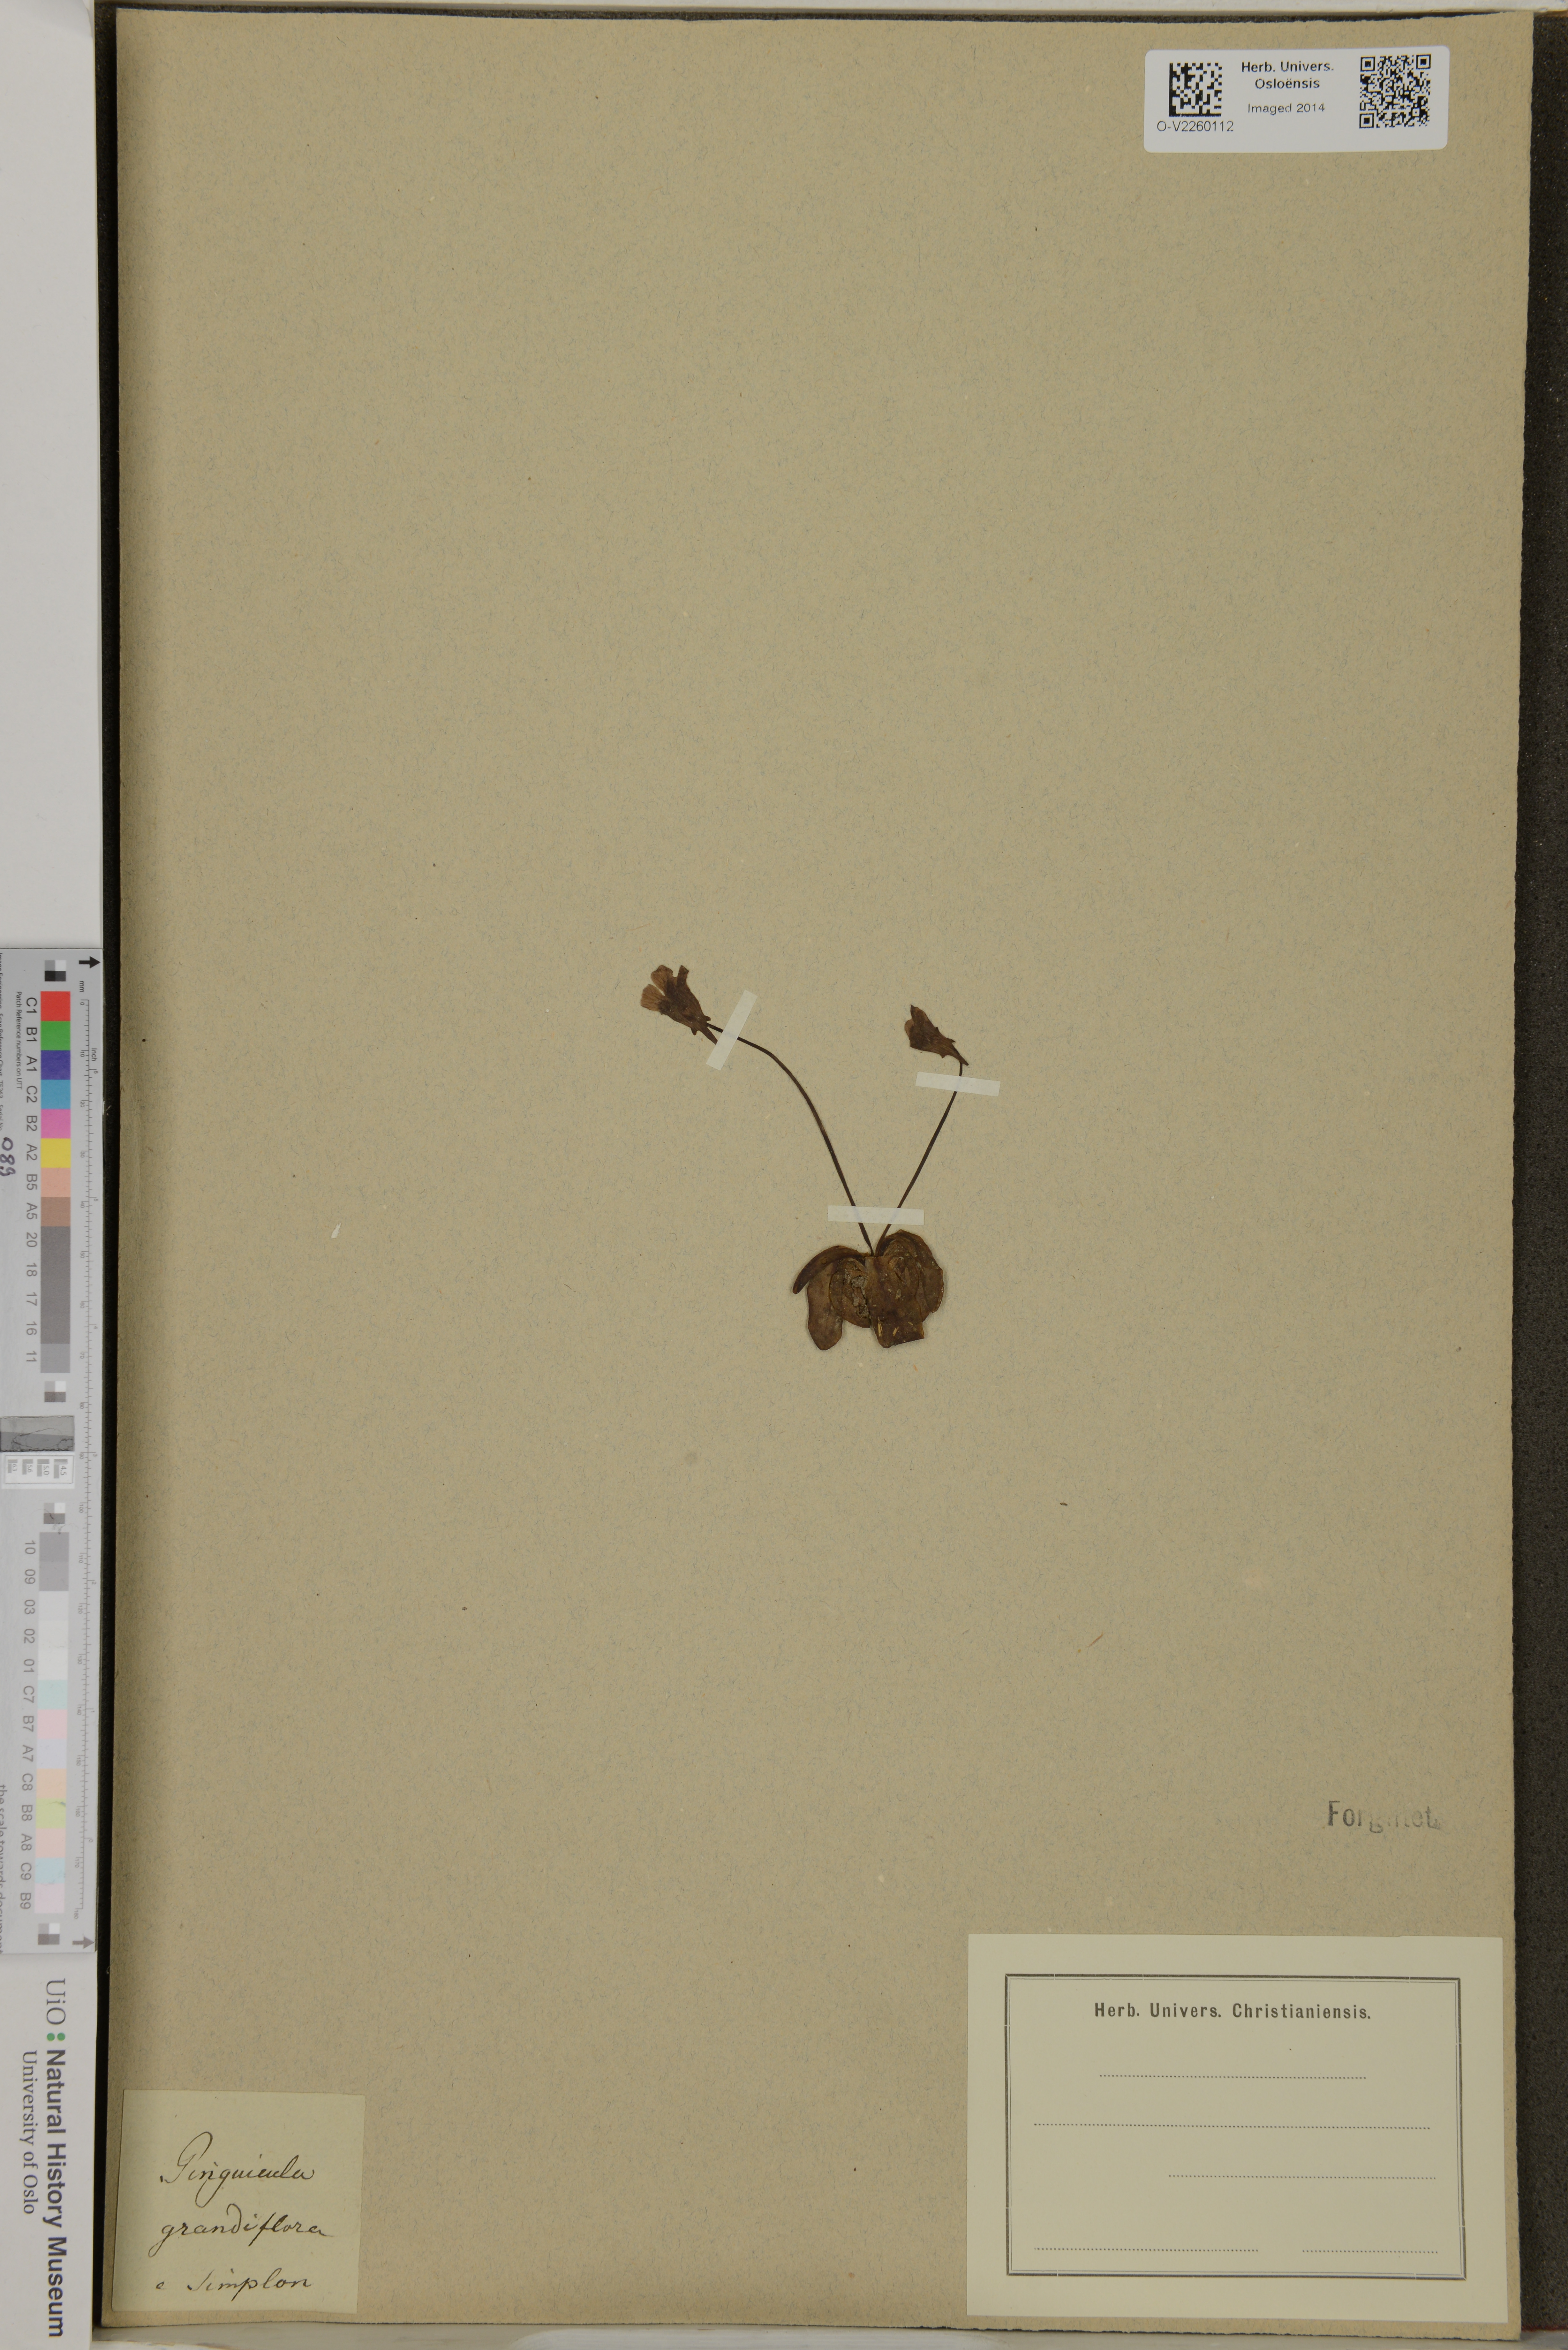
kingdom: Plantae
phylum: Tracheophyta
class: Magnoliopsida
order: Lamiales
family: Lentibulariaceae
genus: Pinguicula
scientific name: Pinguicula grandiflora
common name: Large-flowered butterwort
